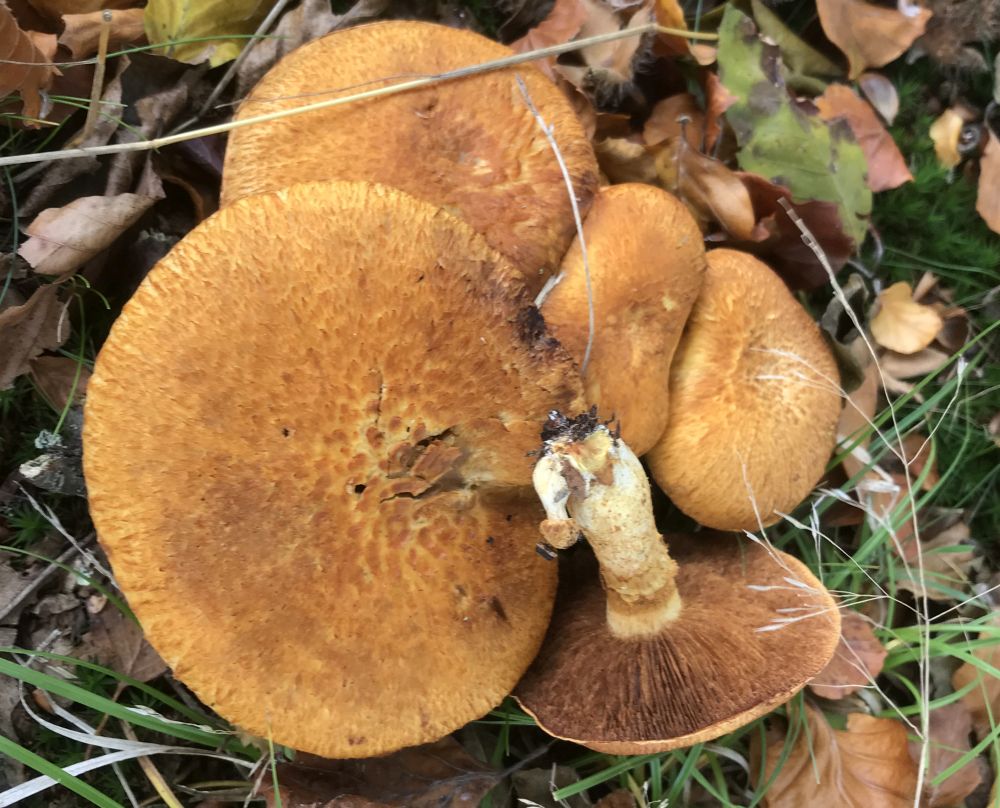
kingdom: Fungi
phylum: Basidiomycota
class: Agaricomycetes
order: Agaricales
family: Hymenogastraceae
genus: Gymnopilus
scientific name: Gymnopilus spectabilis
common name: fibret flammehat
